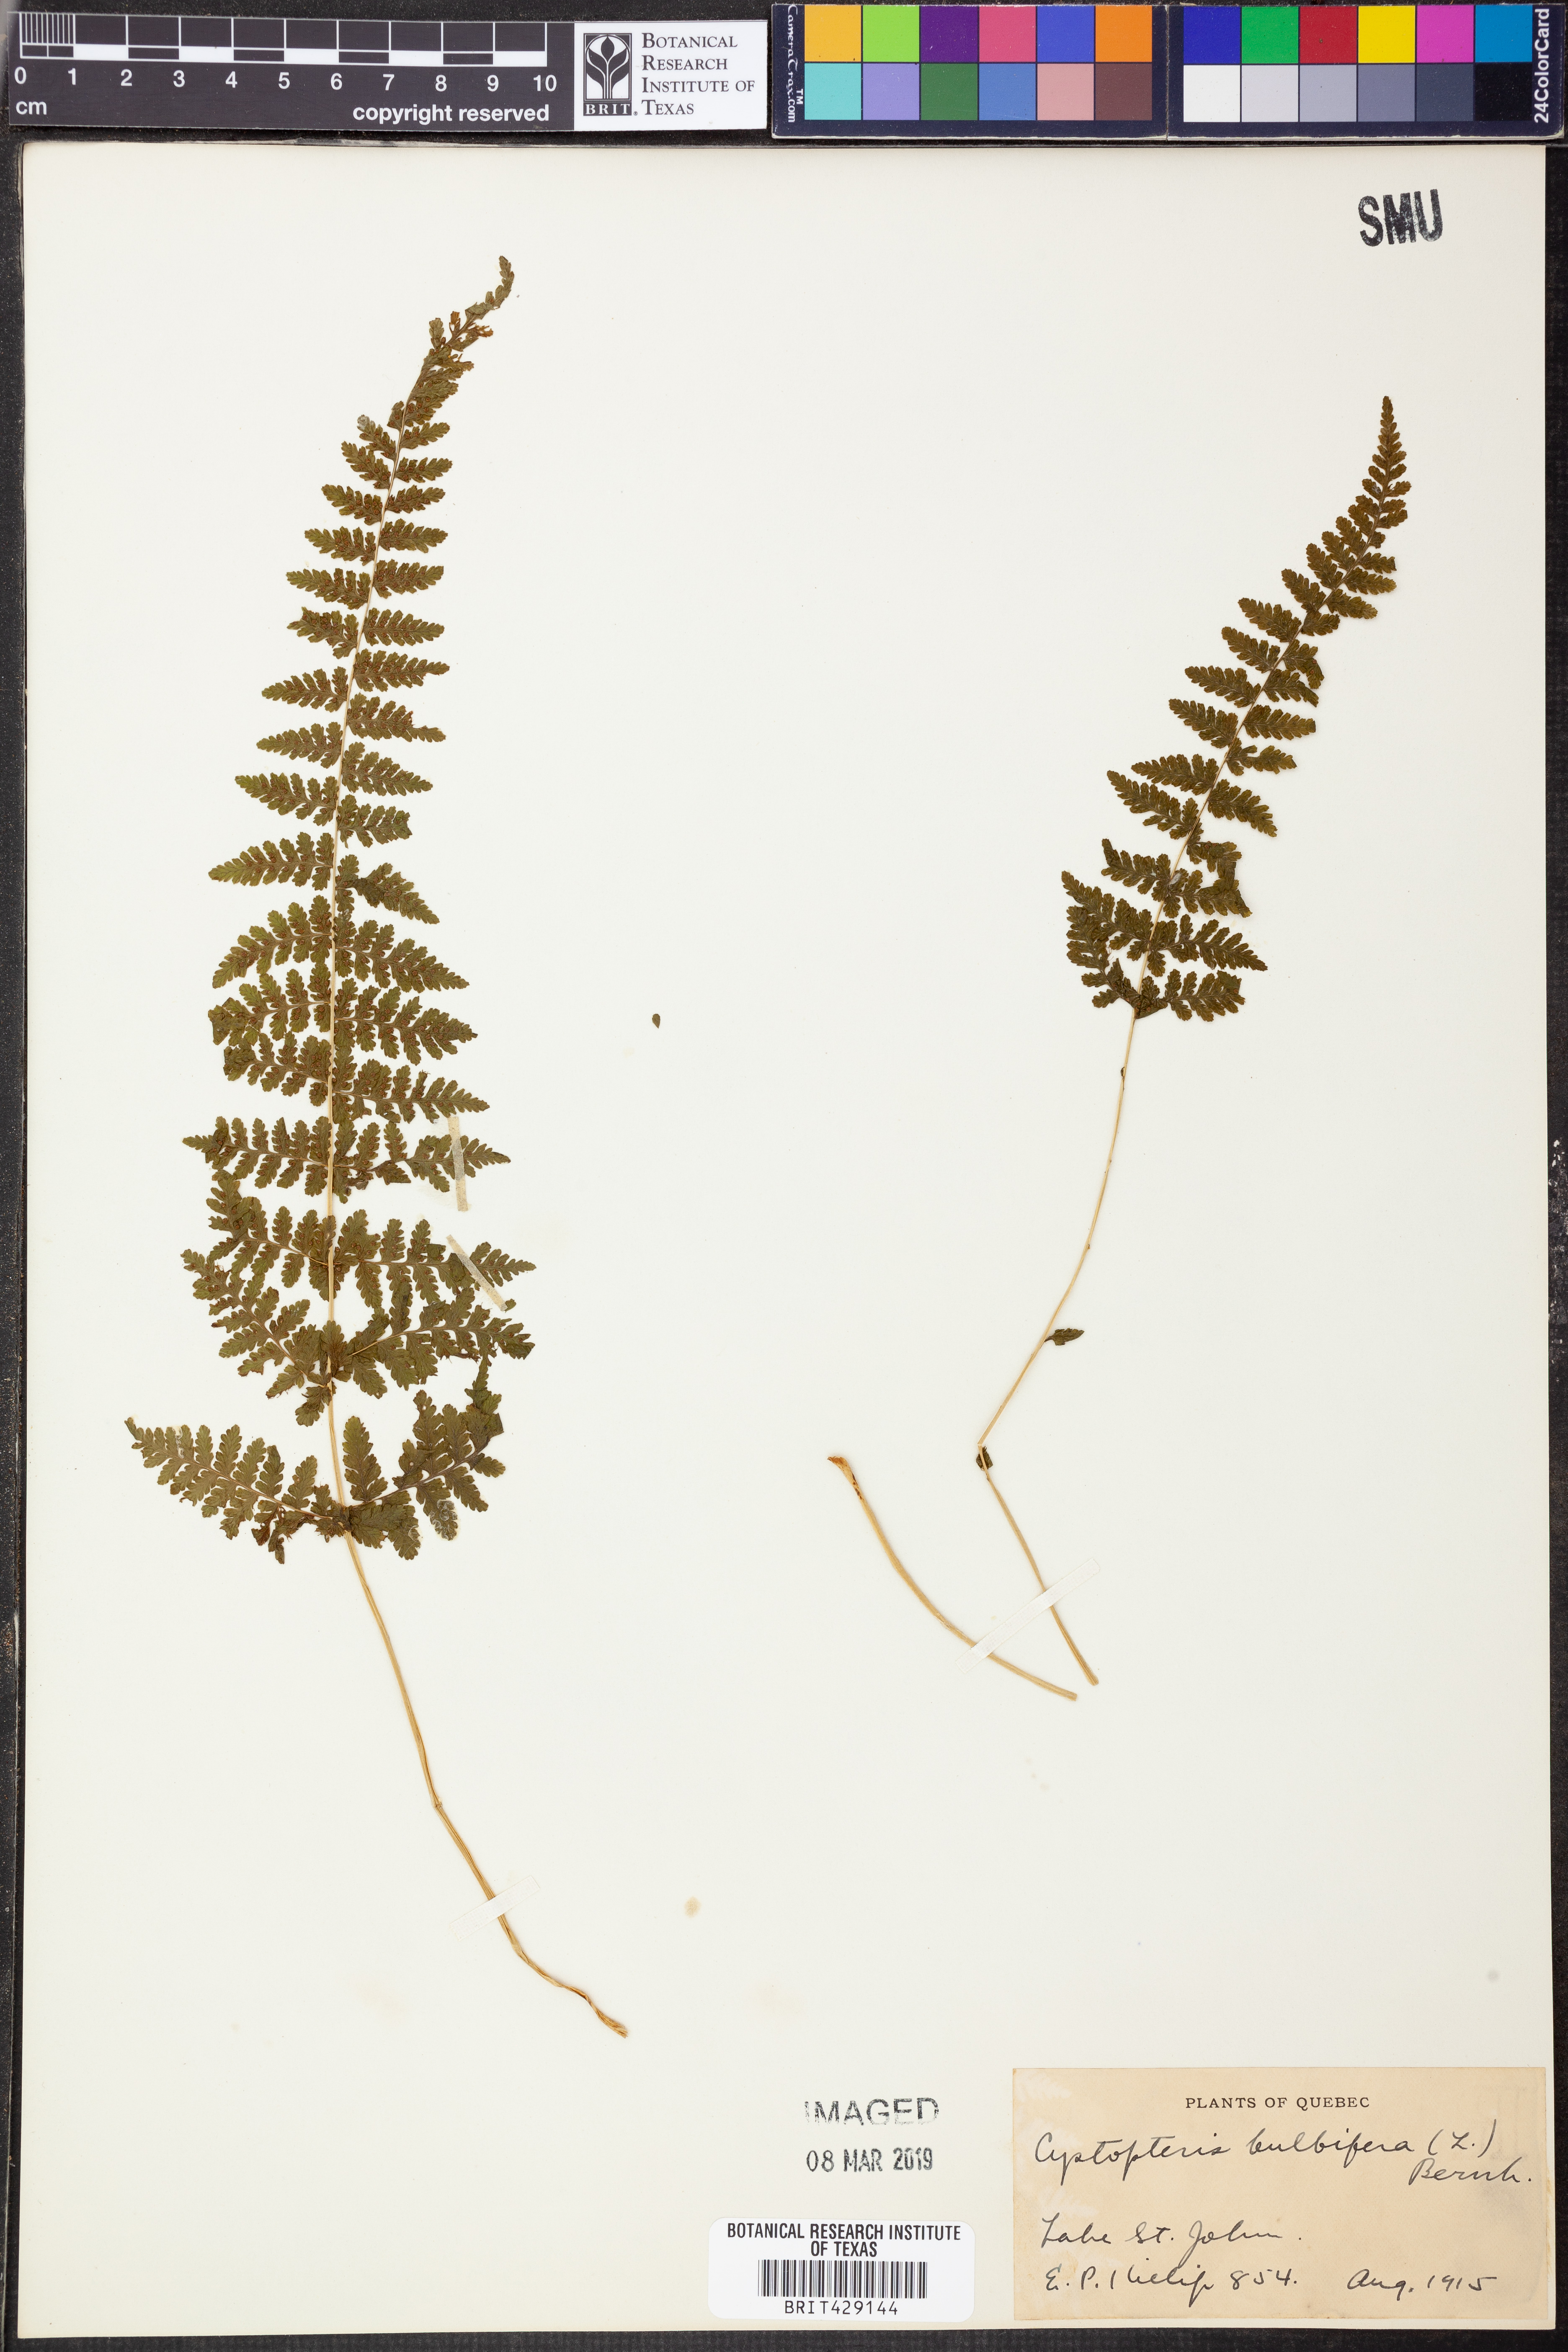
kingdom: Plantae
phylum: Tracheophyta
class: Polypodiopsida
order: Polypodiales
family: Cystopteridaceae
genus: Cystopteris
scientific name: Cystopteris bulbifera
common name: Bulblet bladder fern
